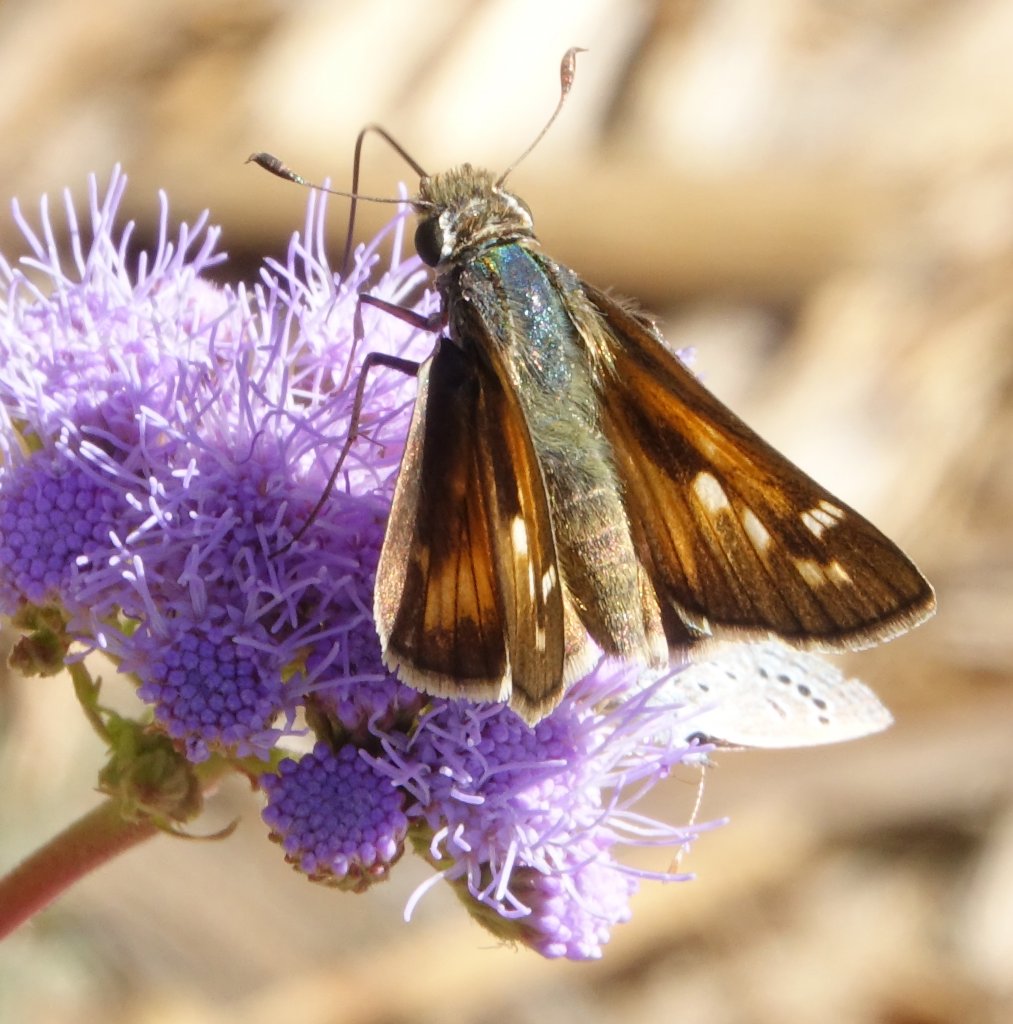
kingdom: Animalia
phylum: Arthropoda
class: Insecta
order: Lepidoptera
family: Hesperiidae
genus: Atalopedes
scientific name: Atalopedes campestris
